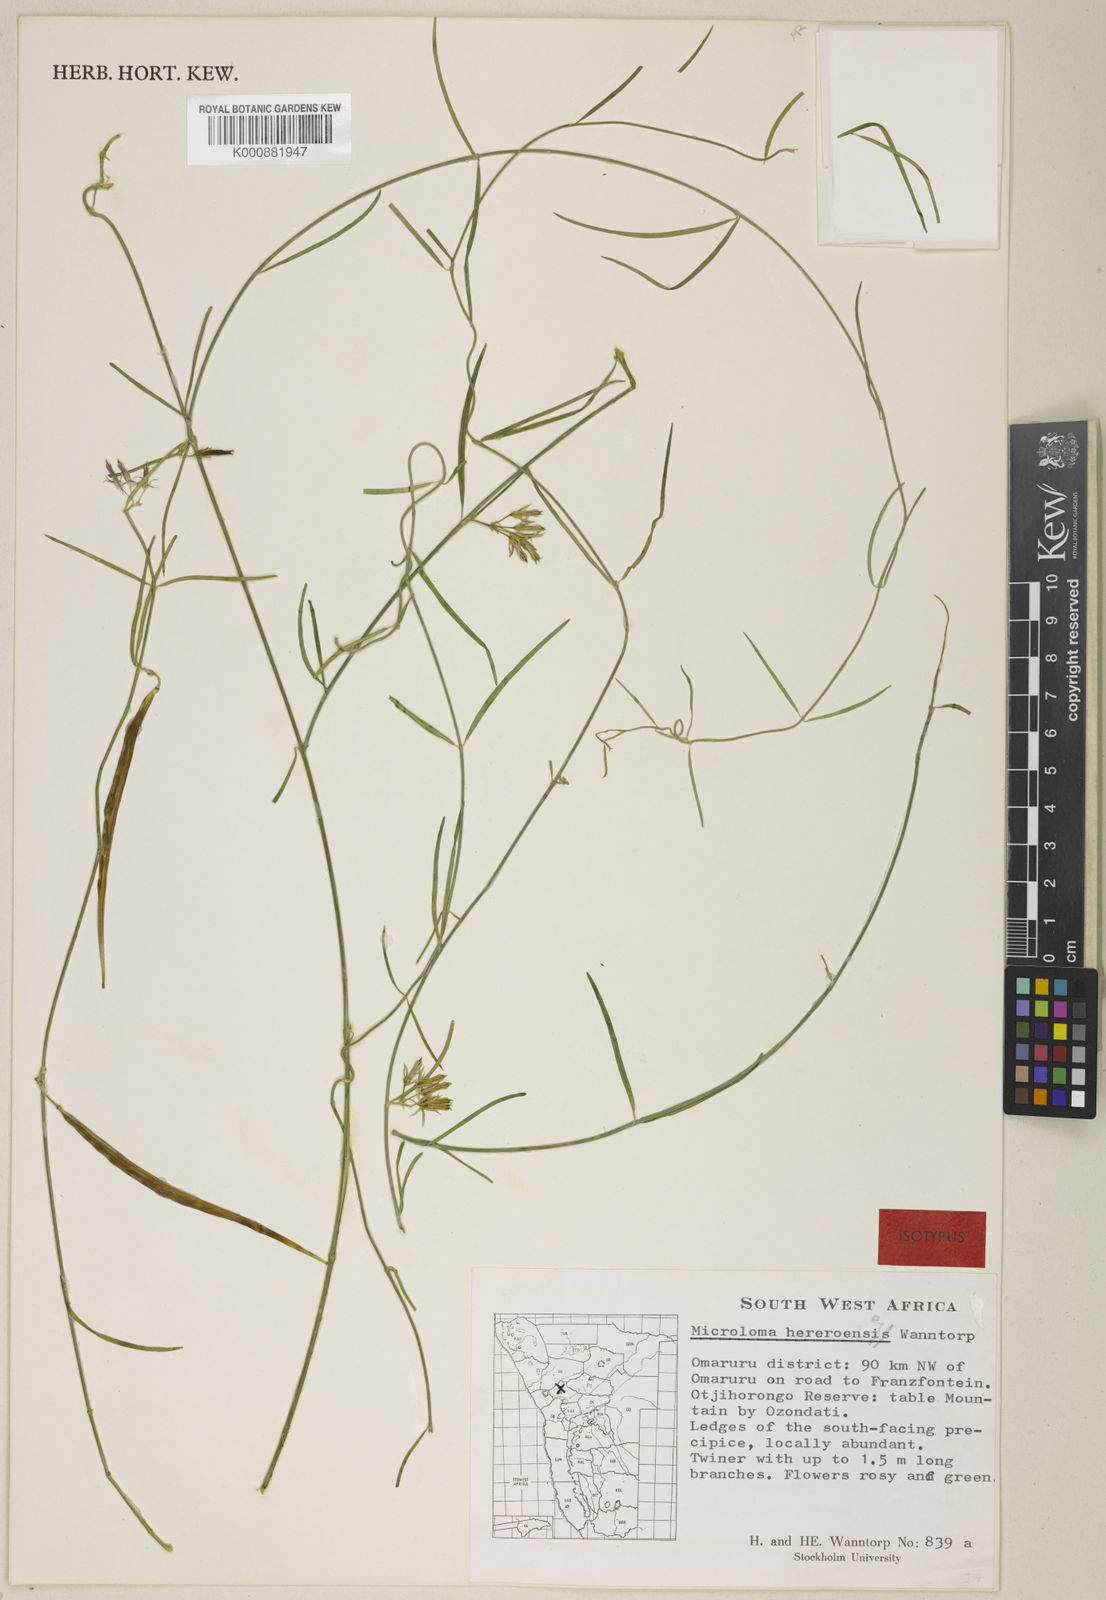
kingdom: Plantae
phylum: Tracheophyta
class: Magnoliopsida
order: Gentianales
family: Apocynaceae
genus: Microloma
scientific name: Microloma hereroense
